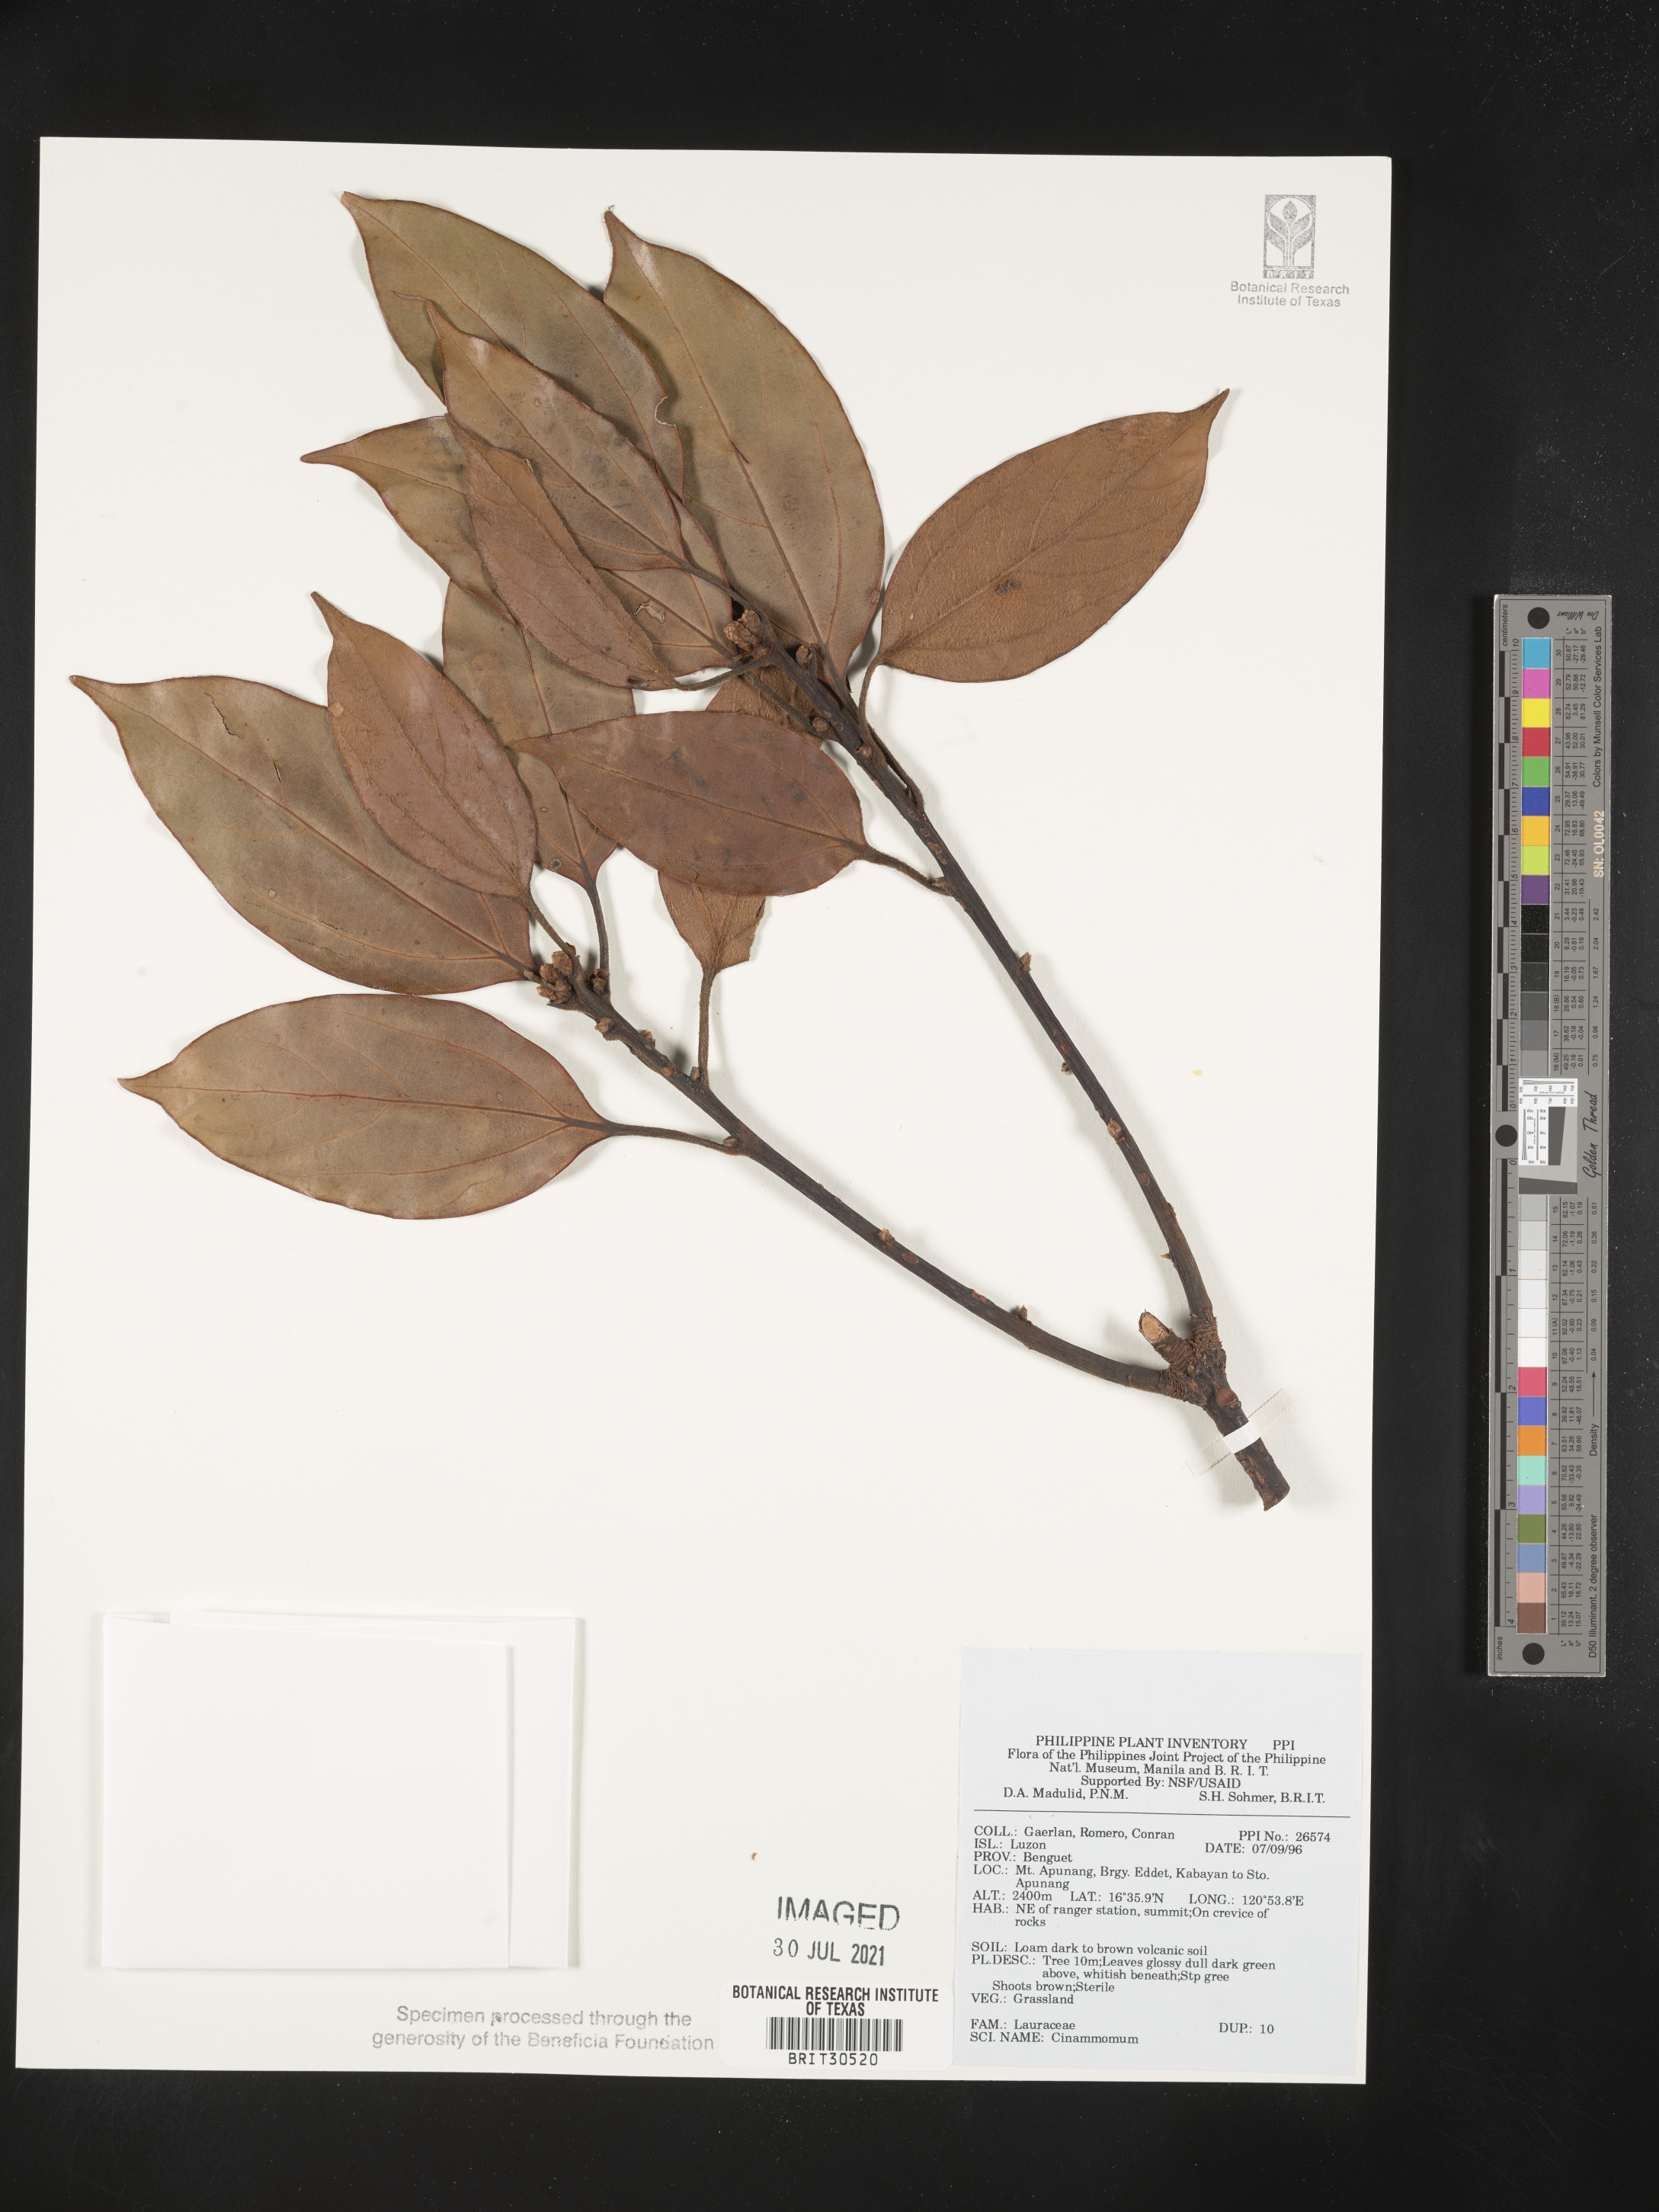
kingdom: Plantae
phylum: Tracheophyta
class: Magnoliopsida
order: Laurales
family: Lauraceae
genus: Cinnamomum
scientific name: Cinnamomum
